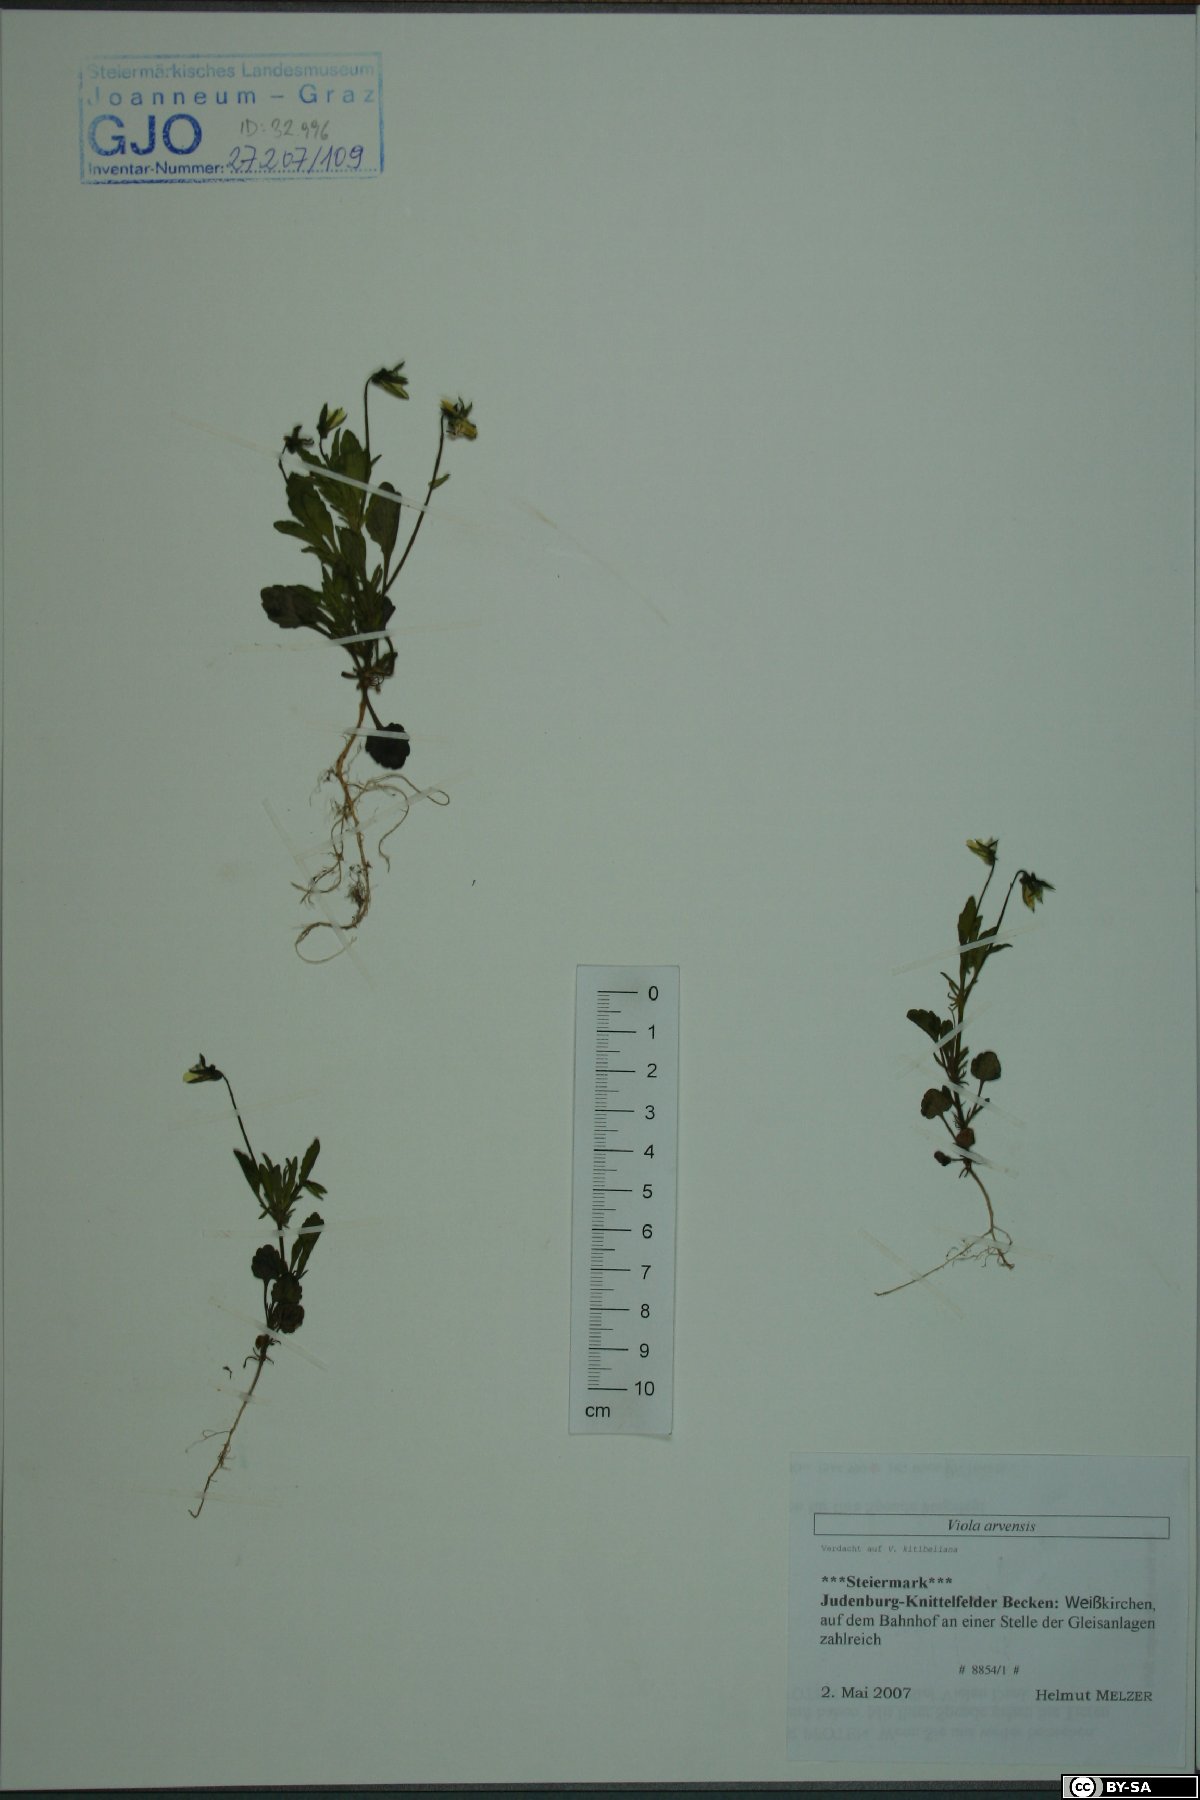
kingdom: Plantae
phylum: Tracheophyta
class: Magnoliopsida
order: Malpighiales
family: Violaceae
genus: Viola
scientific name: Viola arvensis
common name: Field pansy
